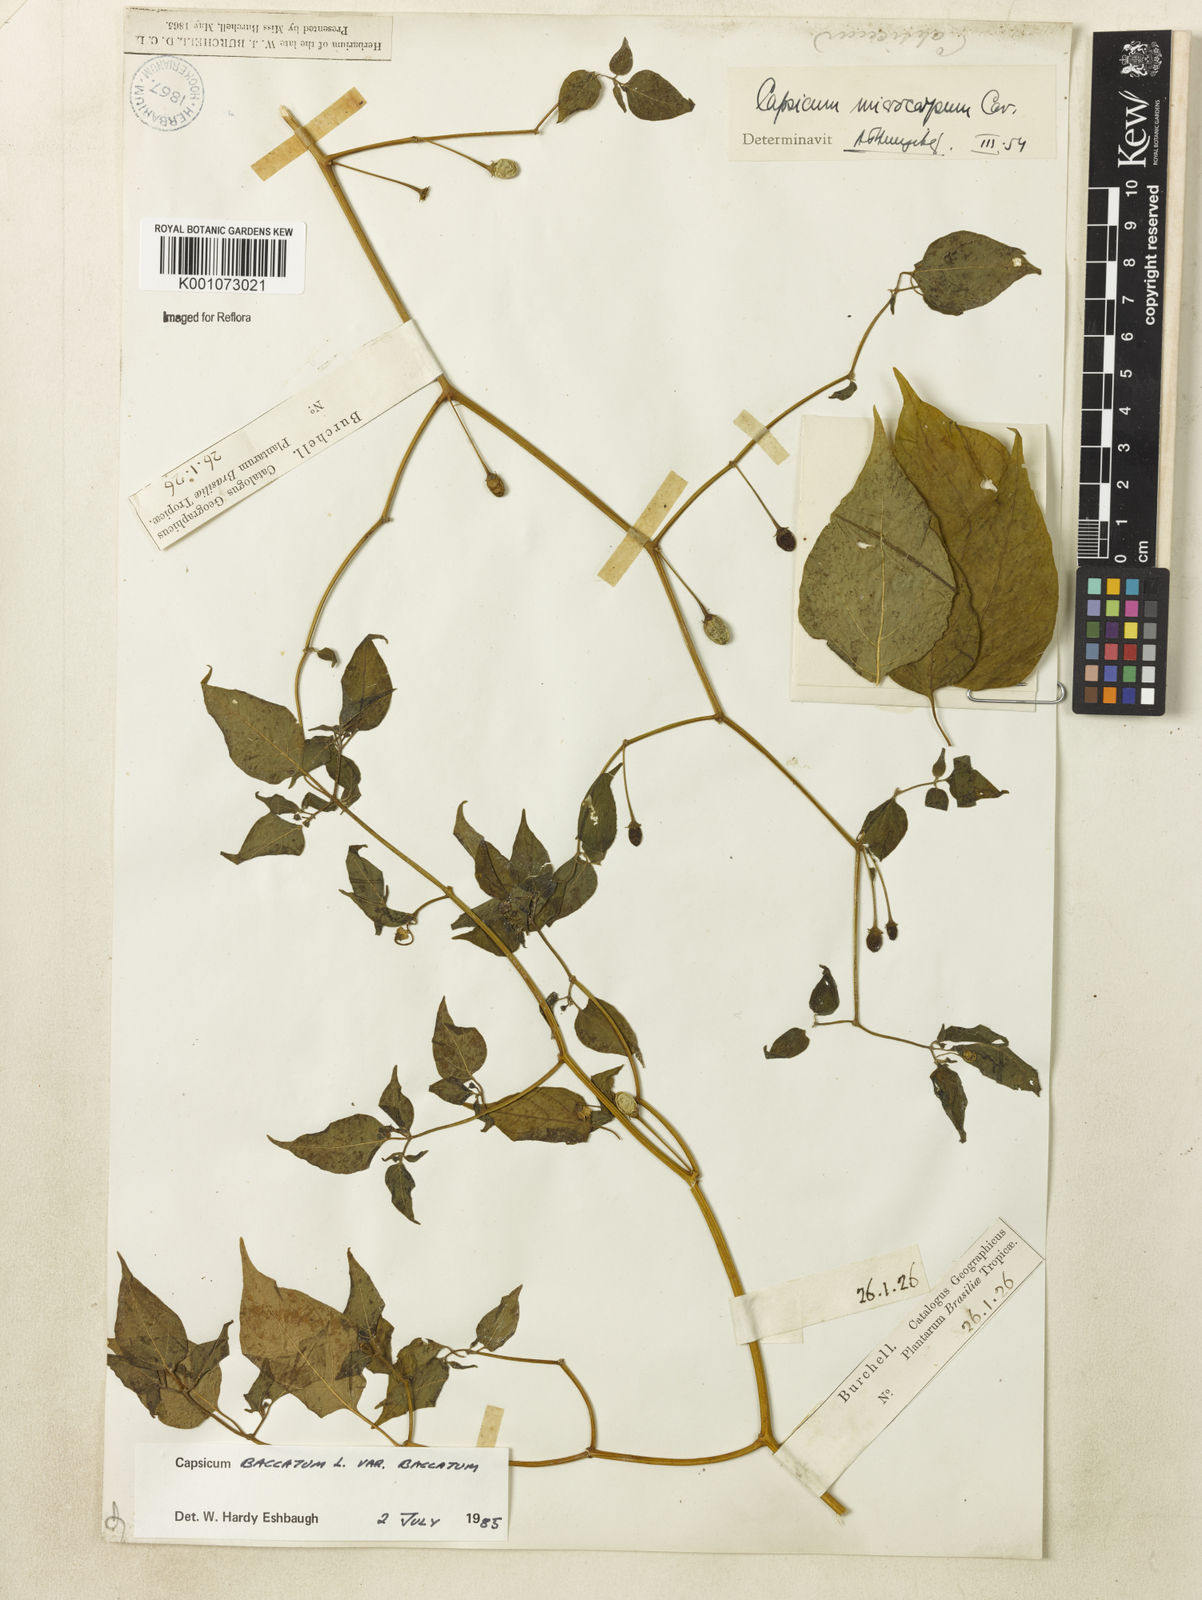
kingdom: Plantae
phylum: Tracheophyta
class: Magnoliopsida
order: Solanales
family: Solanaceae
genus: Capsicum
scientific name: Capsicum baccatum
